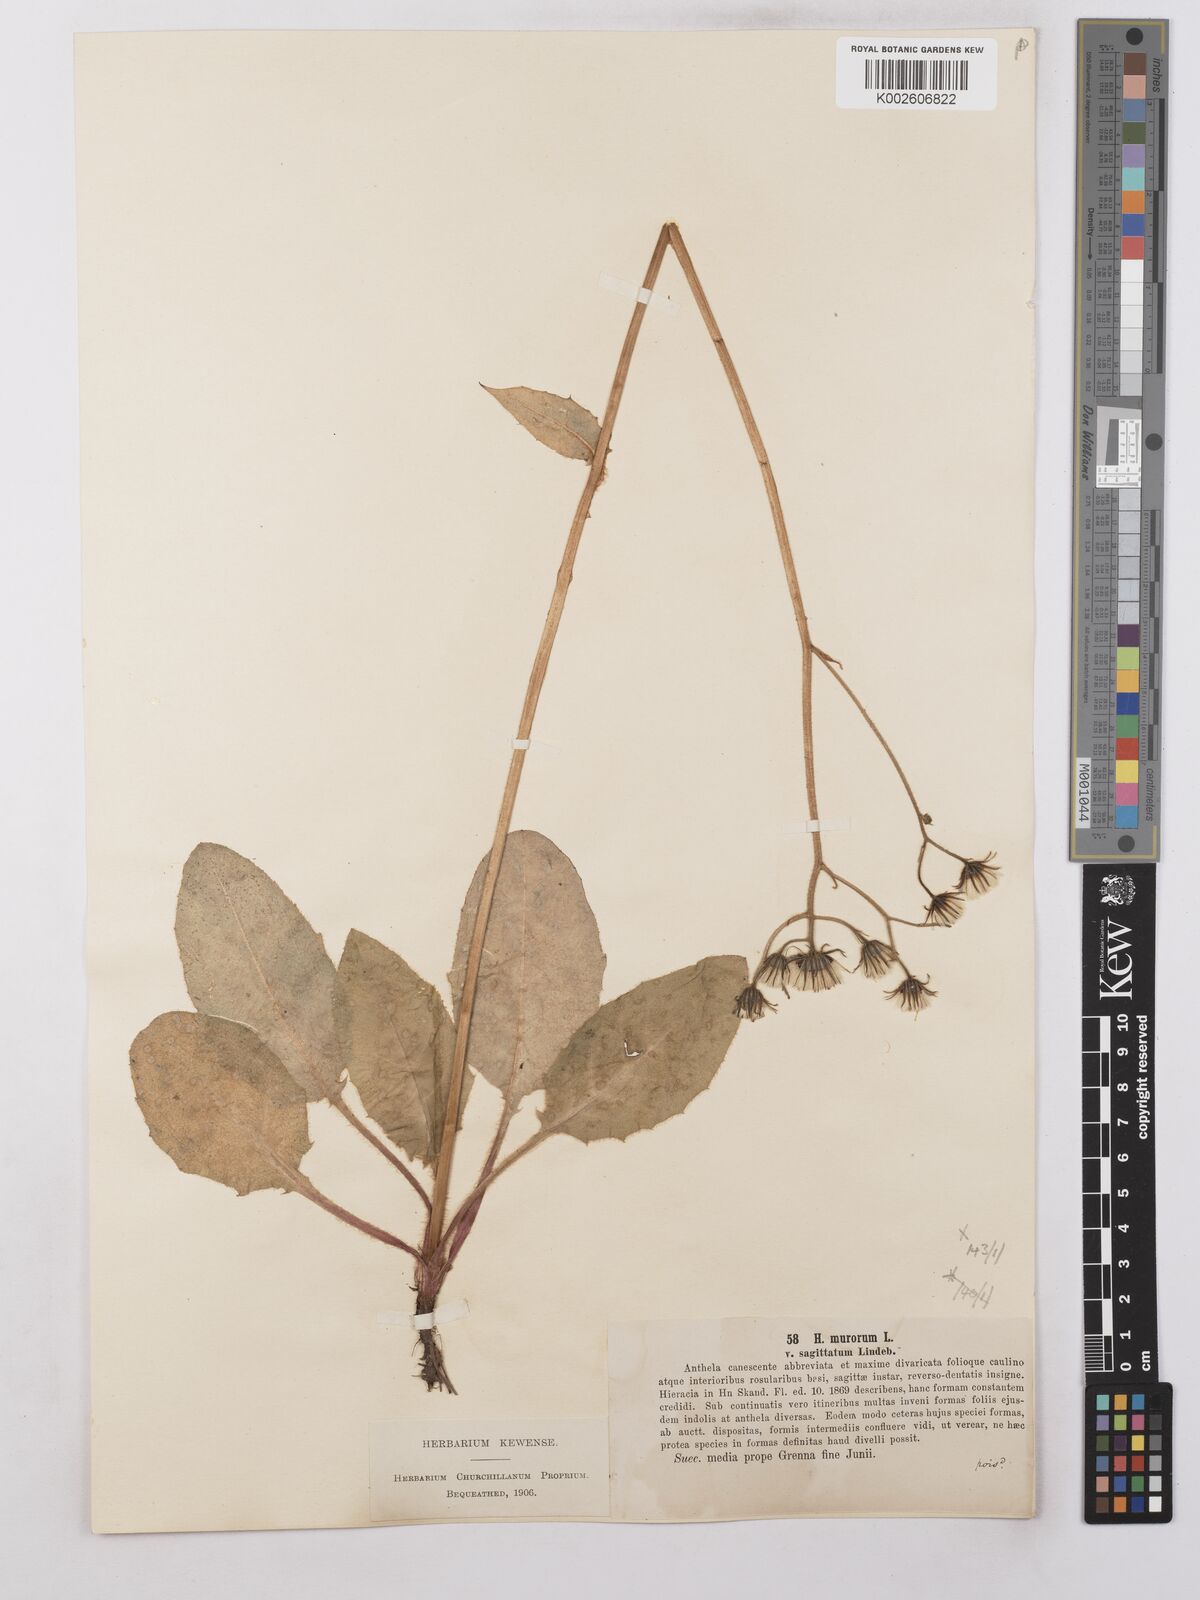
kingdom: Plantae
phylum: Tracheophyta
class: Magnoliopsida
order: Asterales
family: Asteraceae
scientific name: Asteraceae
